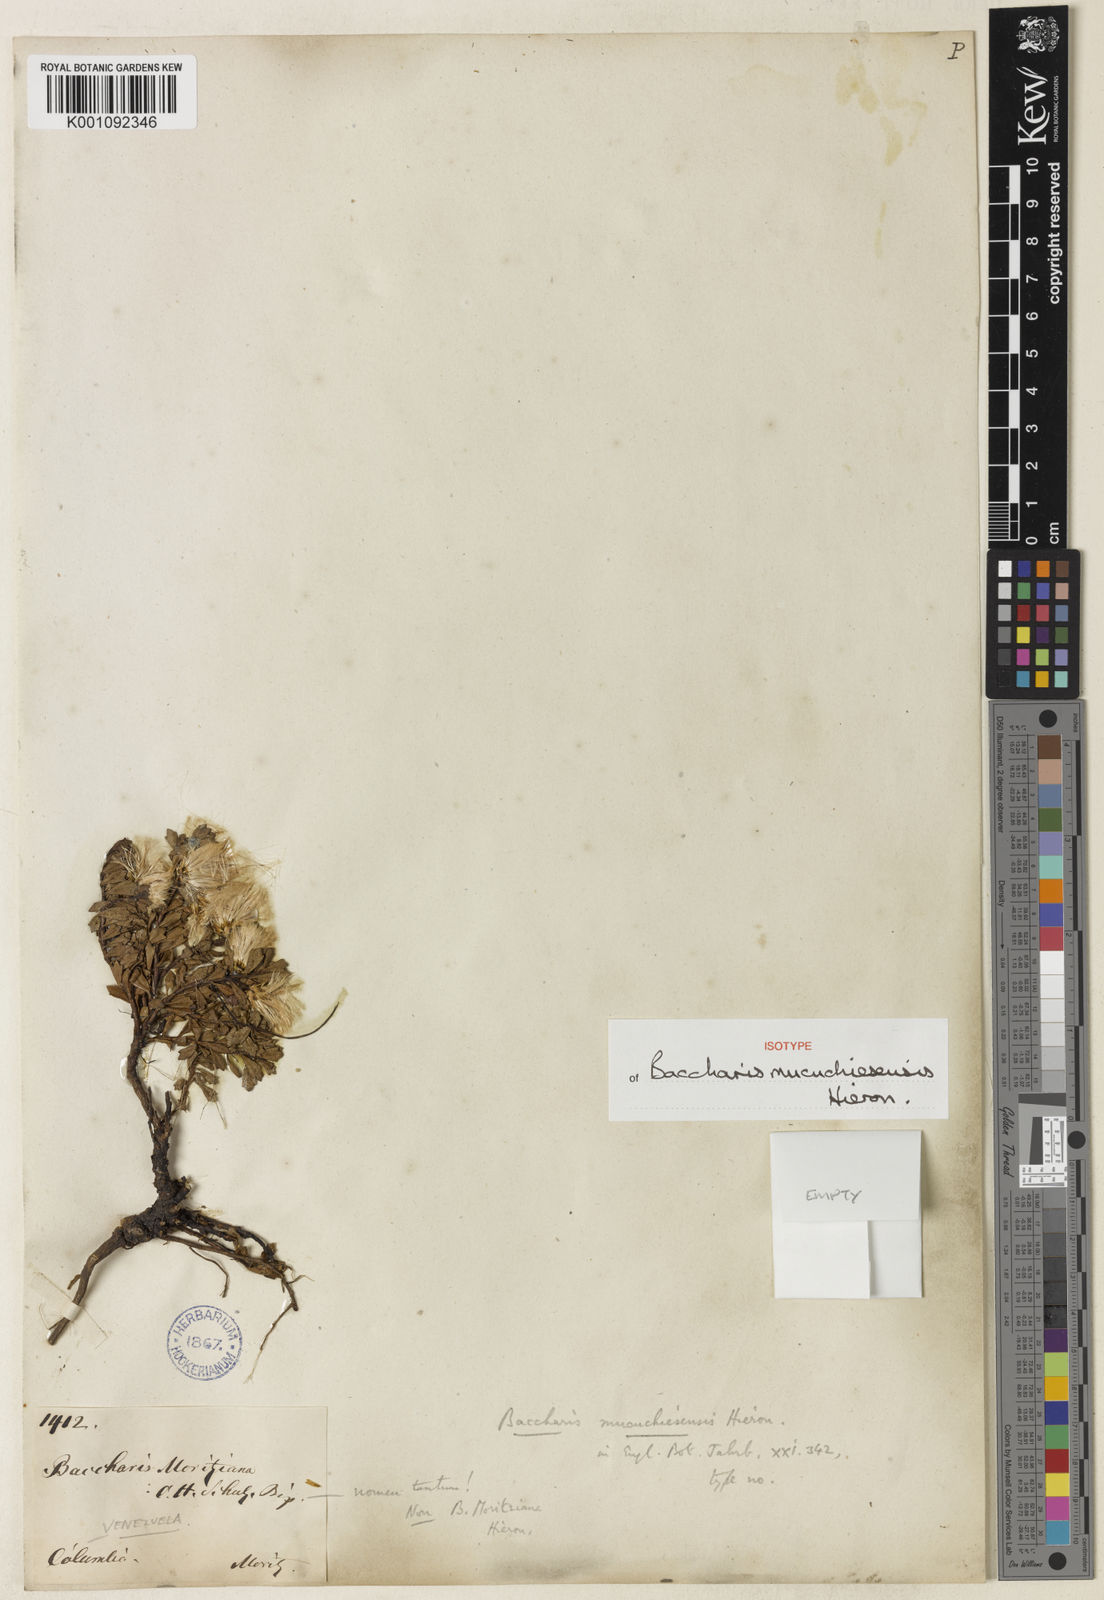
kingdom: Plantae
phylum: Tracheophyta
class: Magnoliopsida
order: Asterales
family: Asteraceae
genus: Baccharis
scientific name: Baccharis tricuneata
